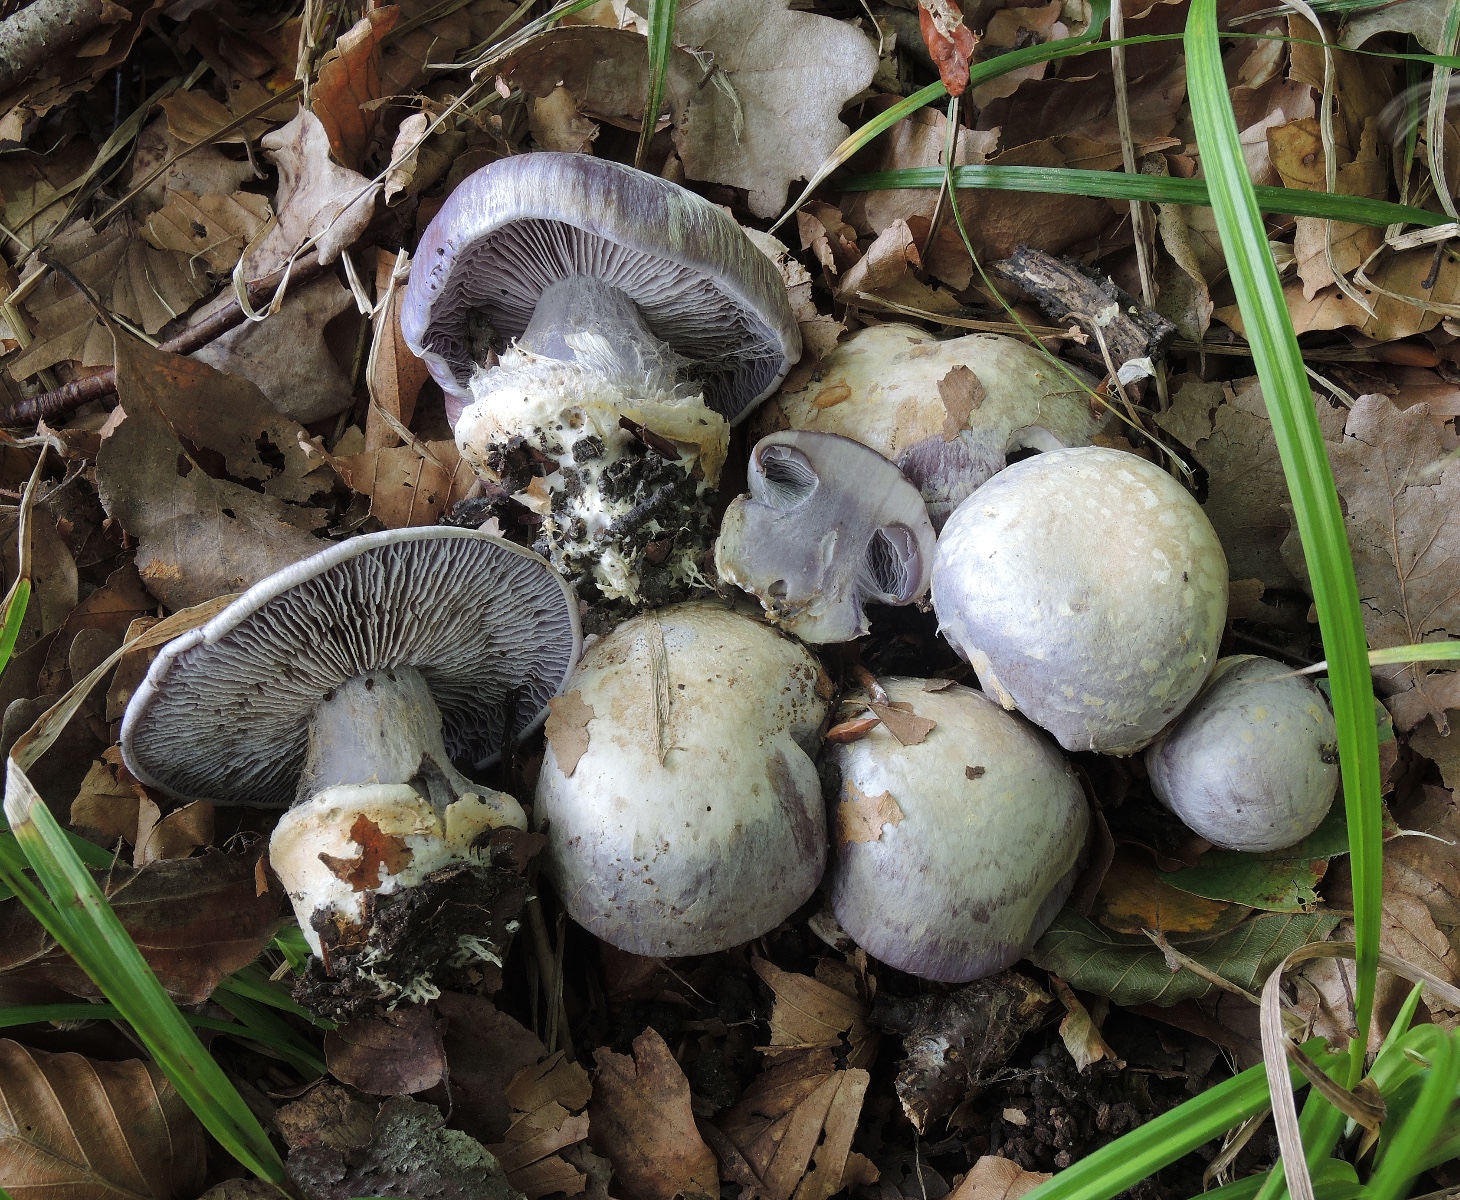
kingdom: Fungi
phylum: Basidiomycota
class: Agaricomycetes
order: Agaricales
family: Cortinariaceae
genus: Cortinarius
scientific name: Cortinarius caerulescens
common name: blåkødet slørhat
